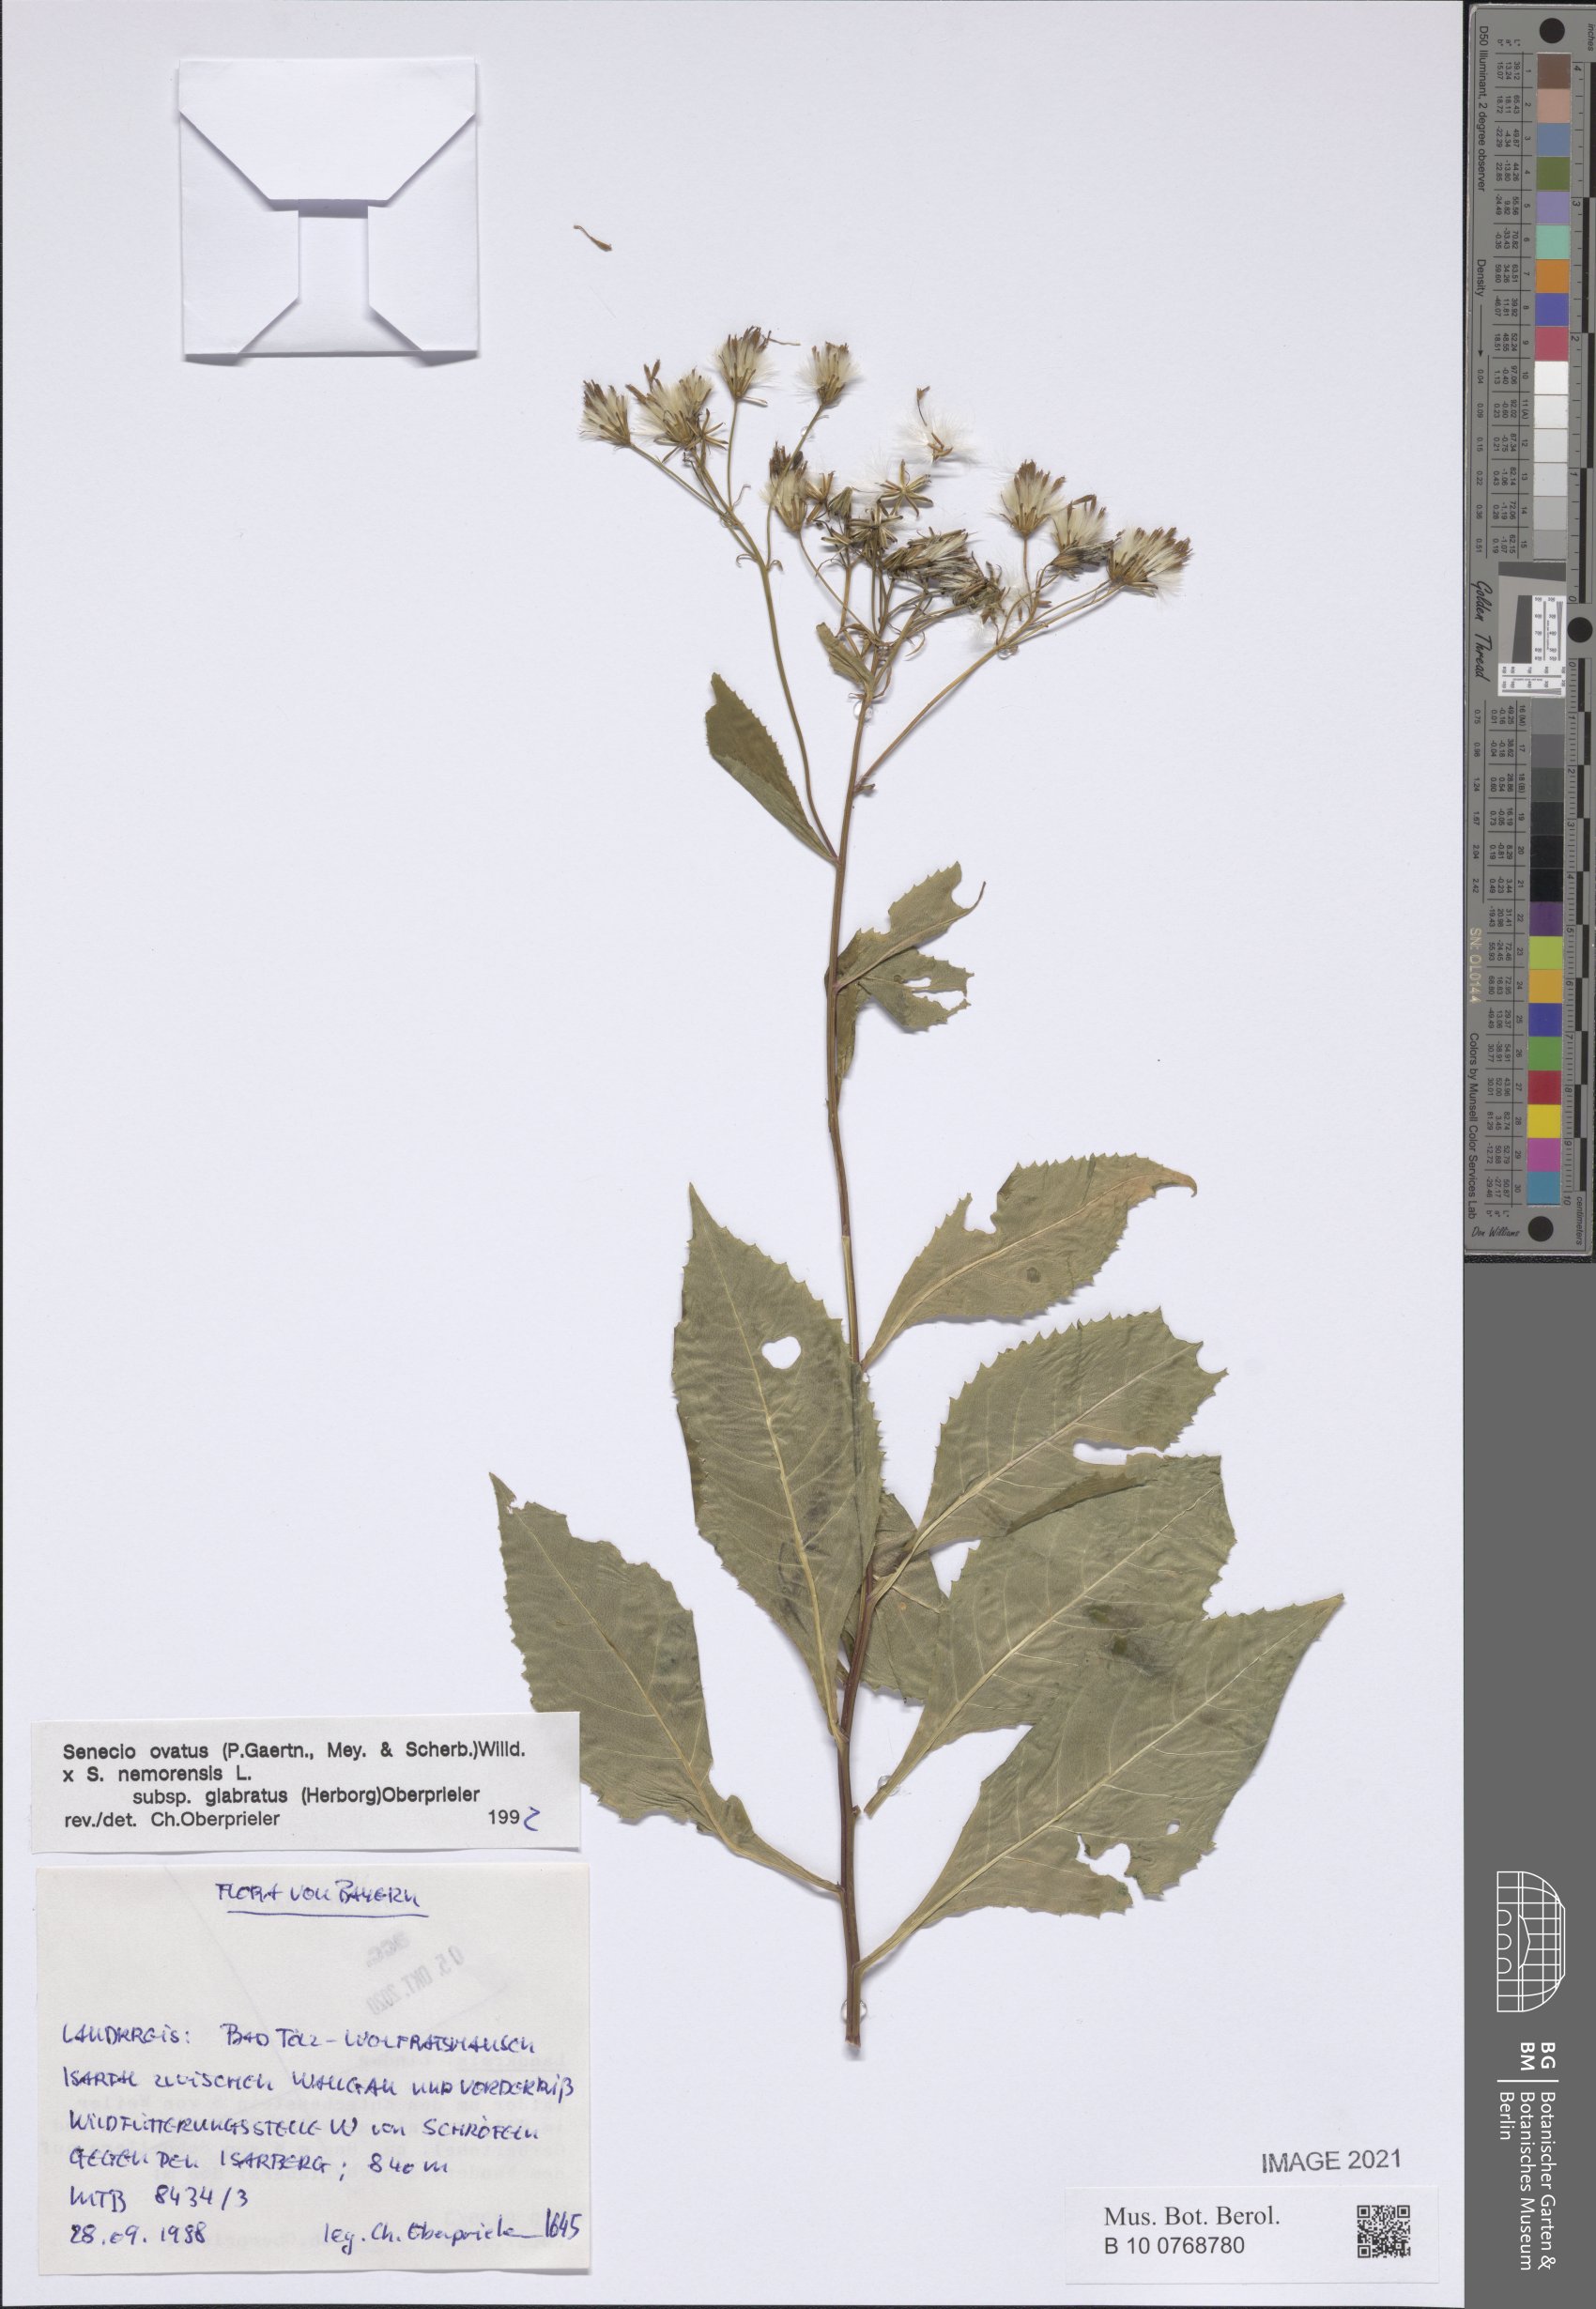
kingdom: Plantae
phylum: Tracheophyta
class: Magnoliopsida
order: Asterales
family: Asteraceae
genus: Senecio
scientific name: Senecio ovatus
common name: Wood ragwort
